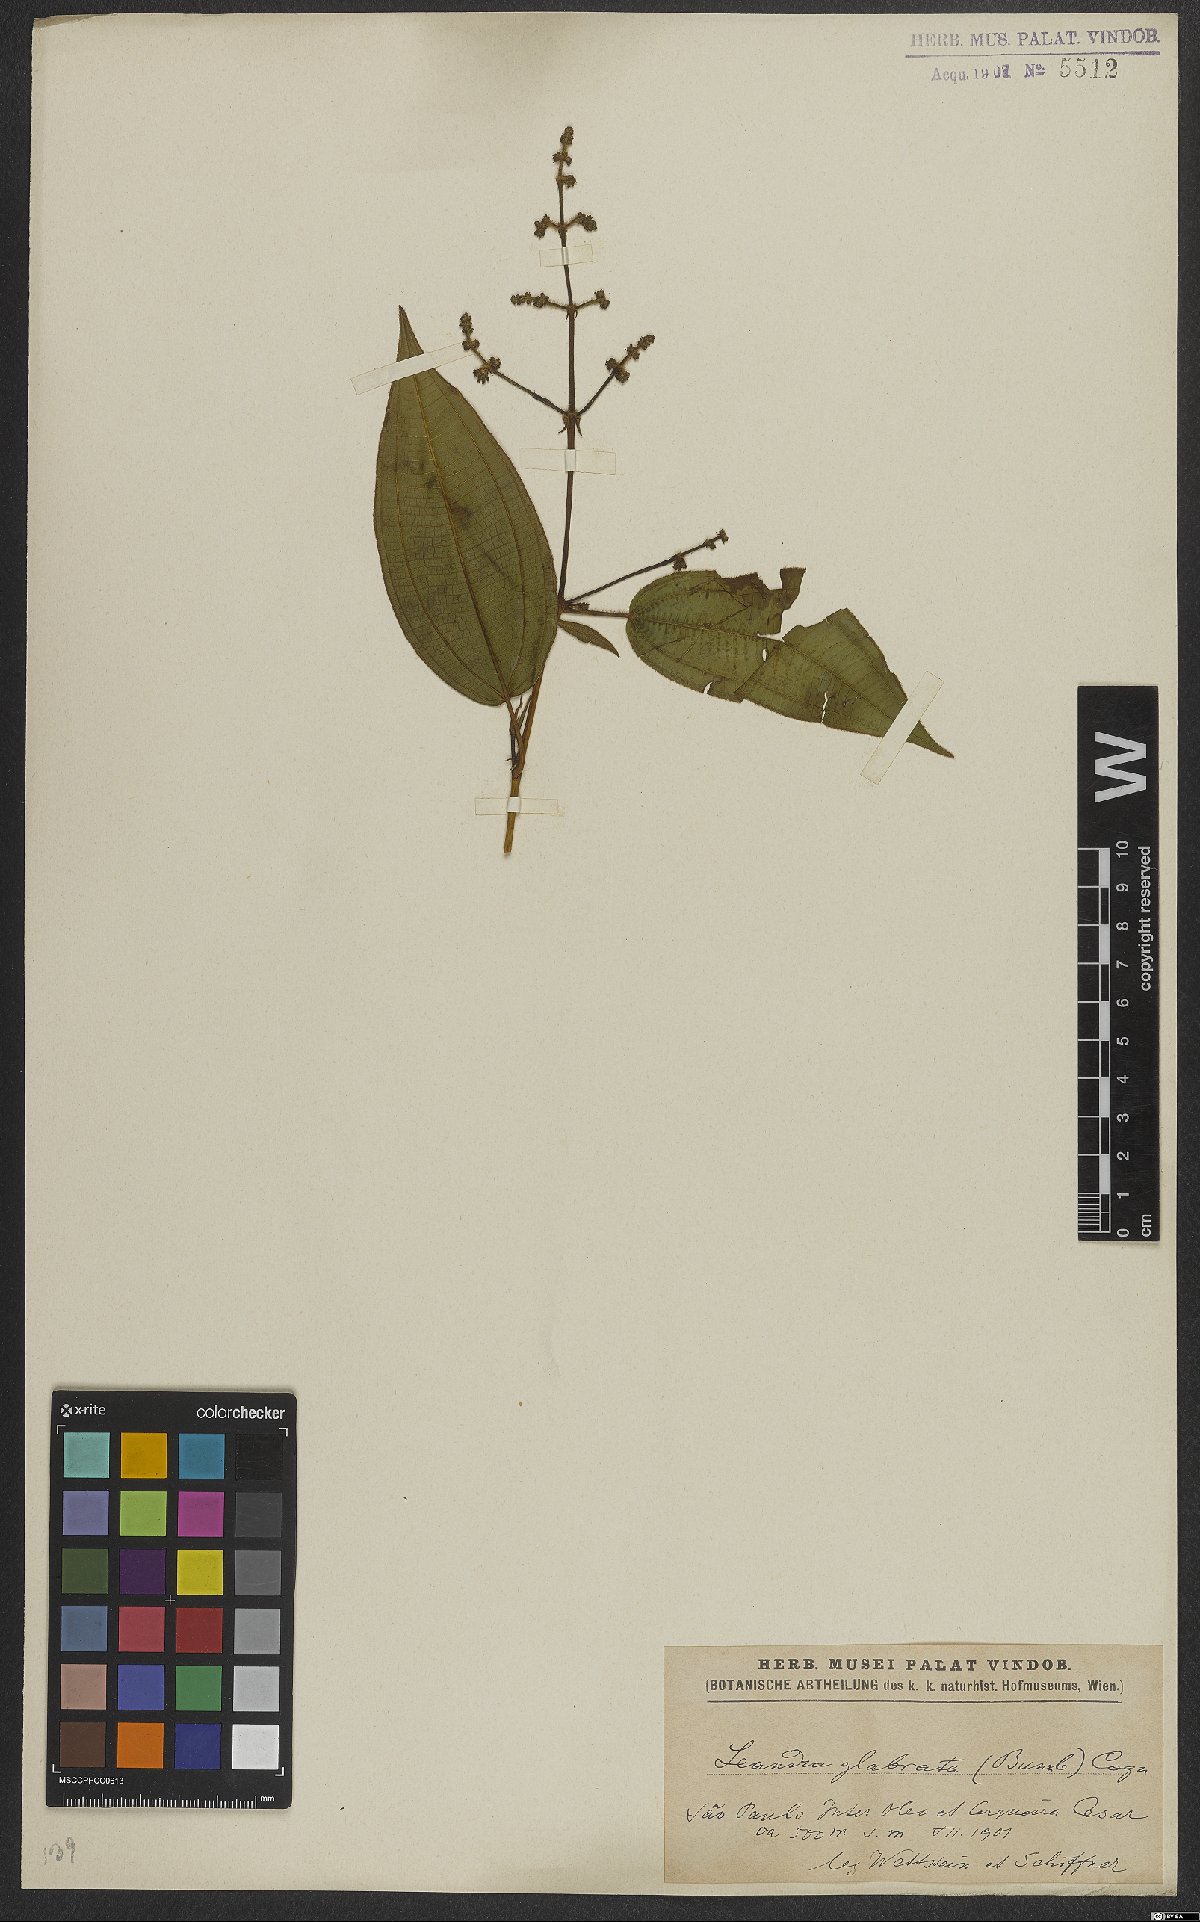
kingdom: Plantae
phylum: Tracheophyta
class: Magnoliopsida
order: Myrtales
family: Melastomataceae
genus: Miconia
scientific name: Miconia dolichostachya
